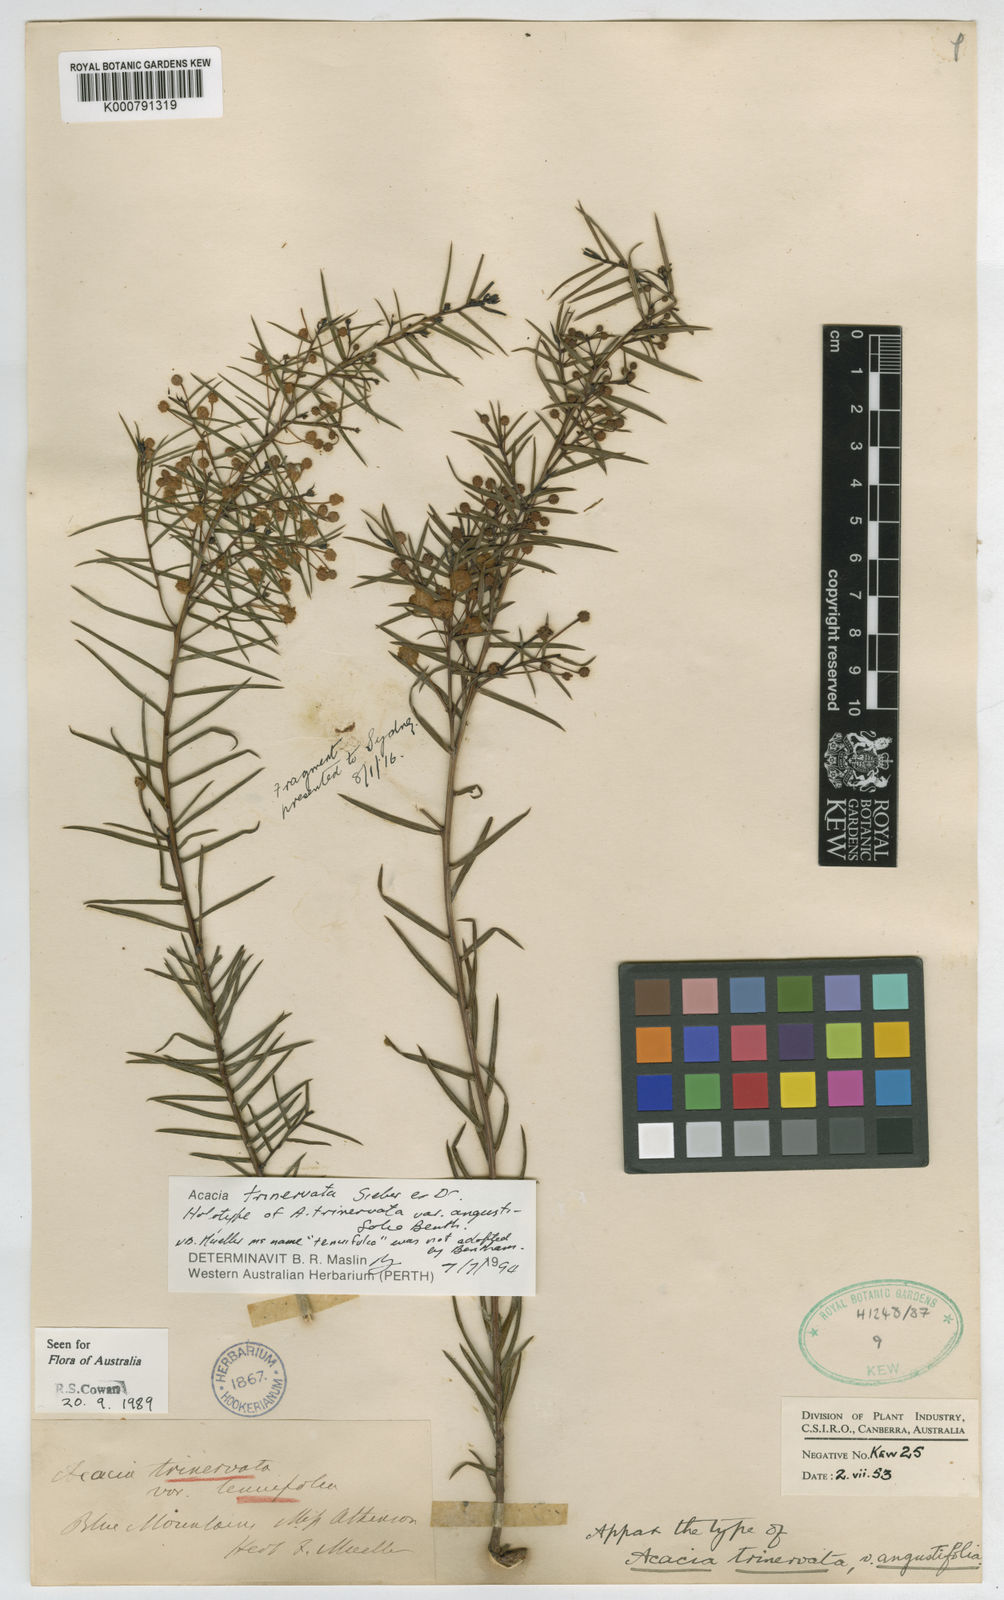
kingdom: Plantae
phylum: Tracheophyta
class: Magnoliopsida
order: Fabales
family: Fabaceae
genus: Acacia
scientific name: Acacia trinervata
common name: Three-nerve wattle
